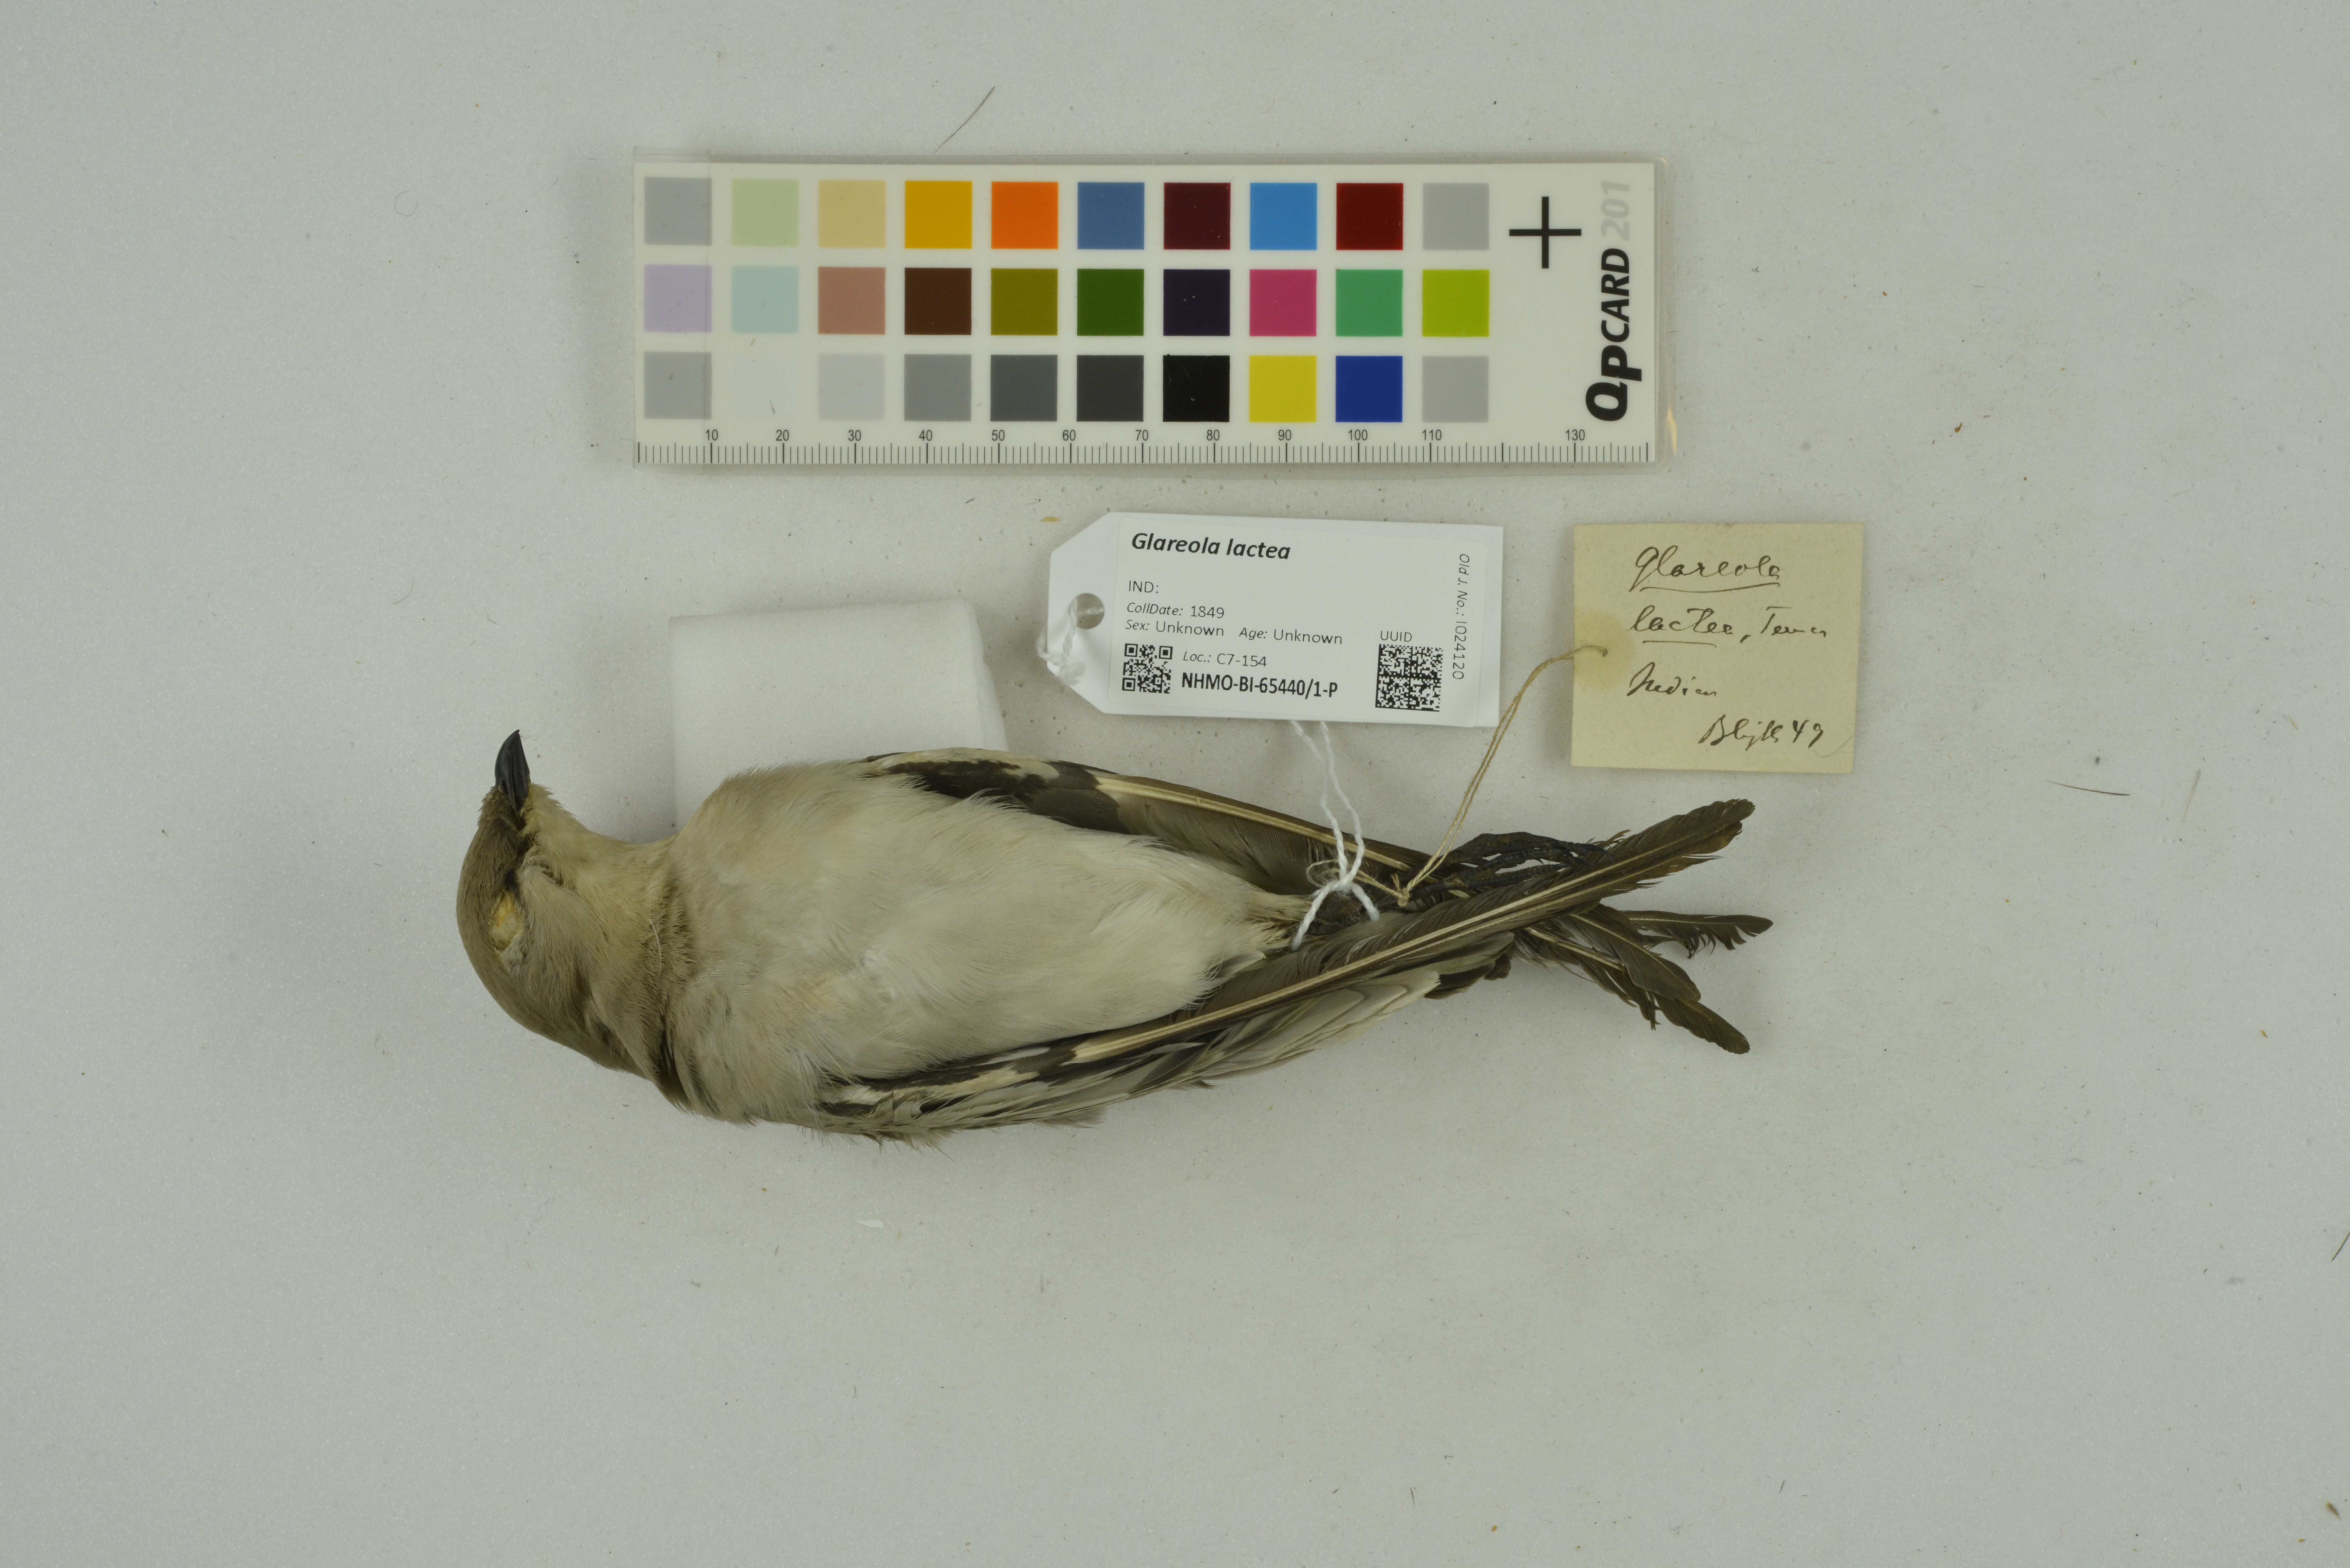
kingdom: Animalia
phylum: Chordata
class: Aves
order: Charadriiformes
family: Glareolidae
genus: Glareola
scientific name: Glareola lactea
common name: Small pratincole
